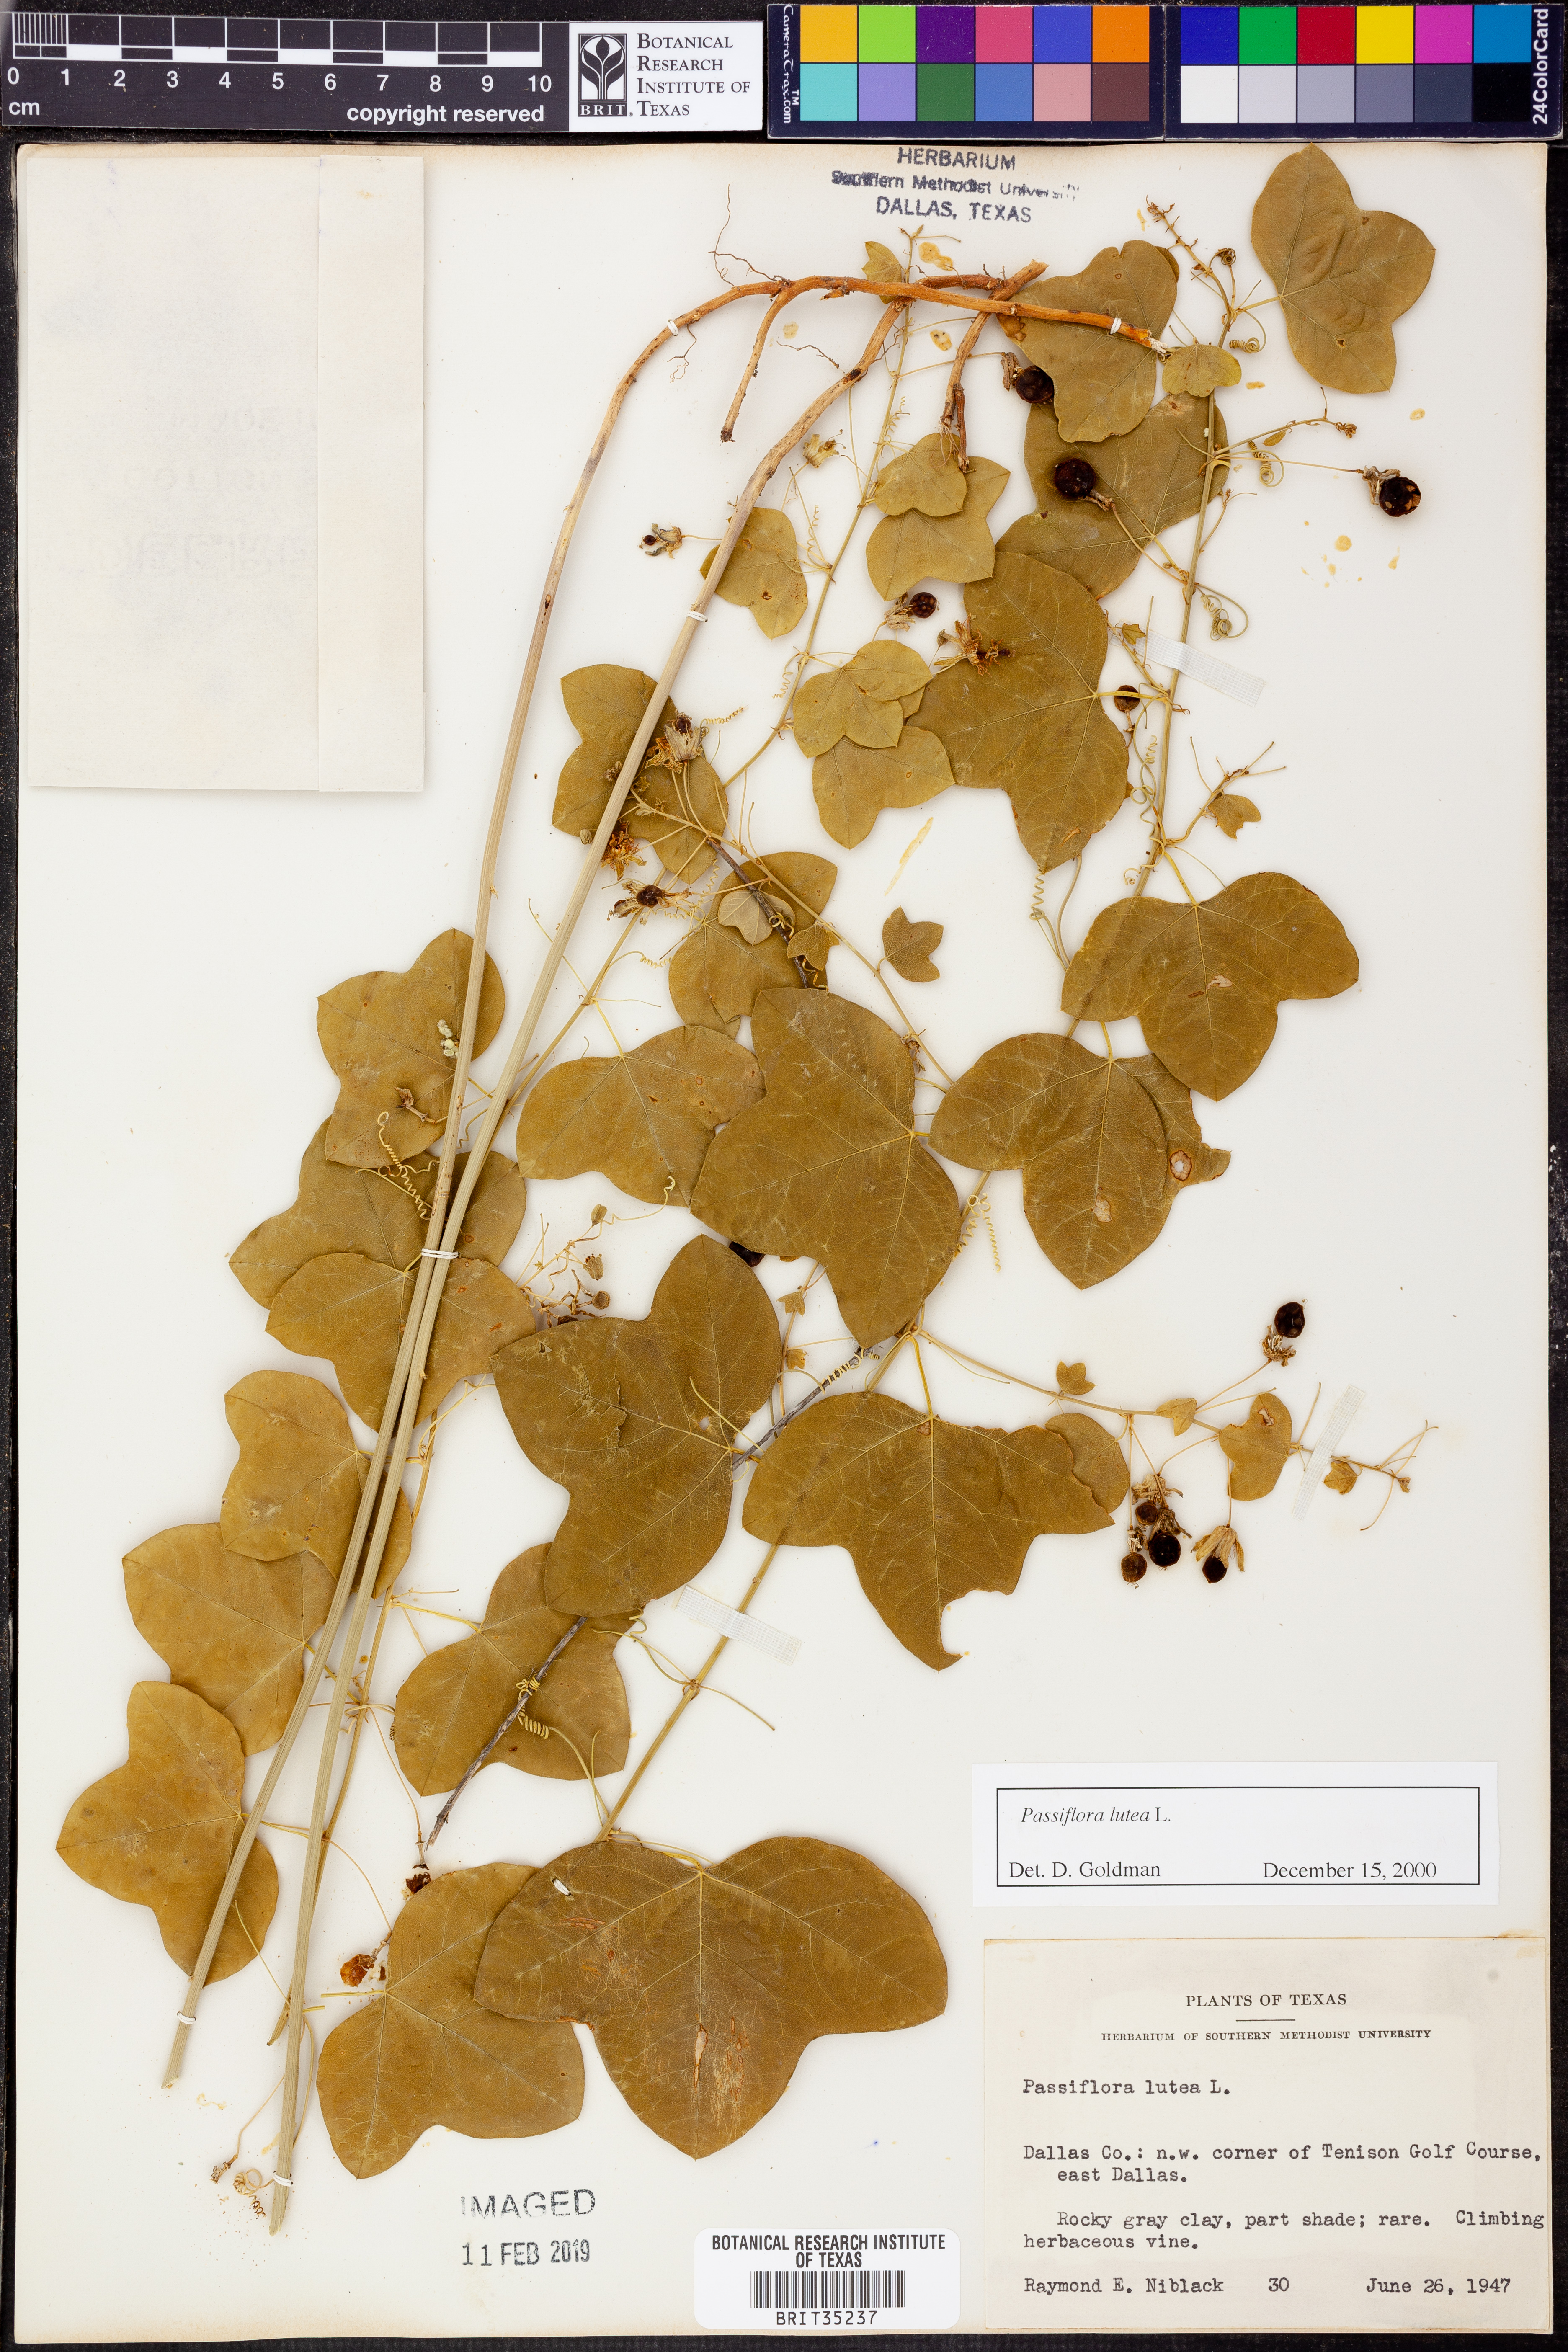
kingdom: Plantae
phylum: Tracheophyta
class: Magnoliopsida
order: Malpighiales
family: Passifloraceae
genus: Passiflora
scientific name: Passiflora lutea
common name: Yellow passionflower
